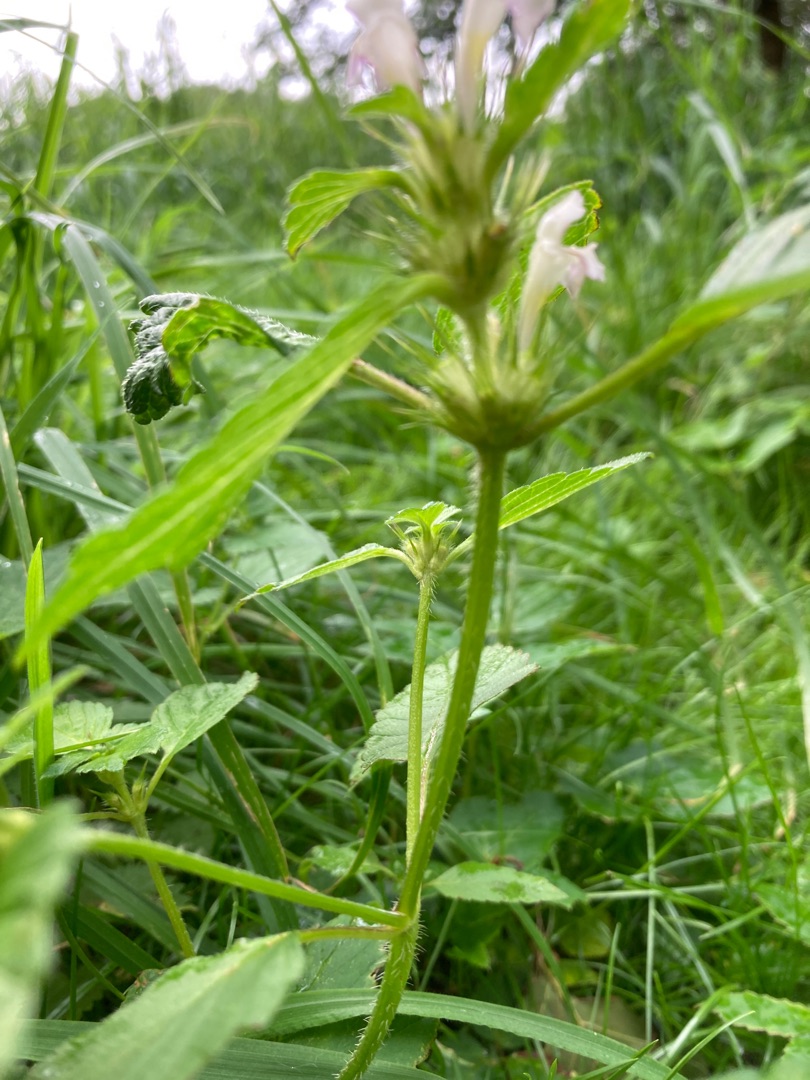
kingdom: Plantae
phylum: Tracheophyta
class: Magnoliopsida
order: Lamiales
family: Lamiaceae
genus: Galeopsis
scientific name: Galeopsis
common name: Hanekroslægten
